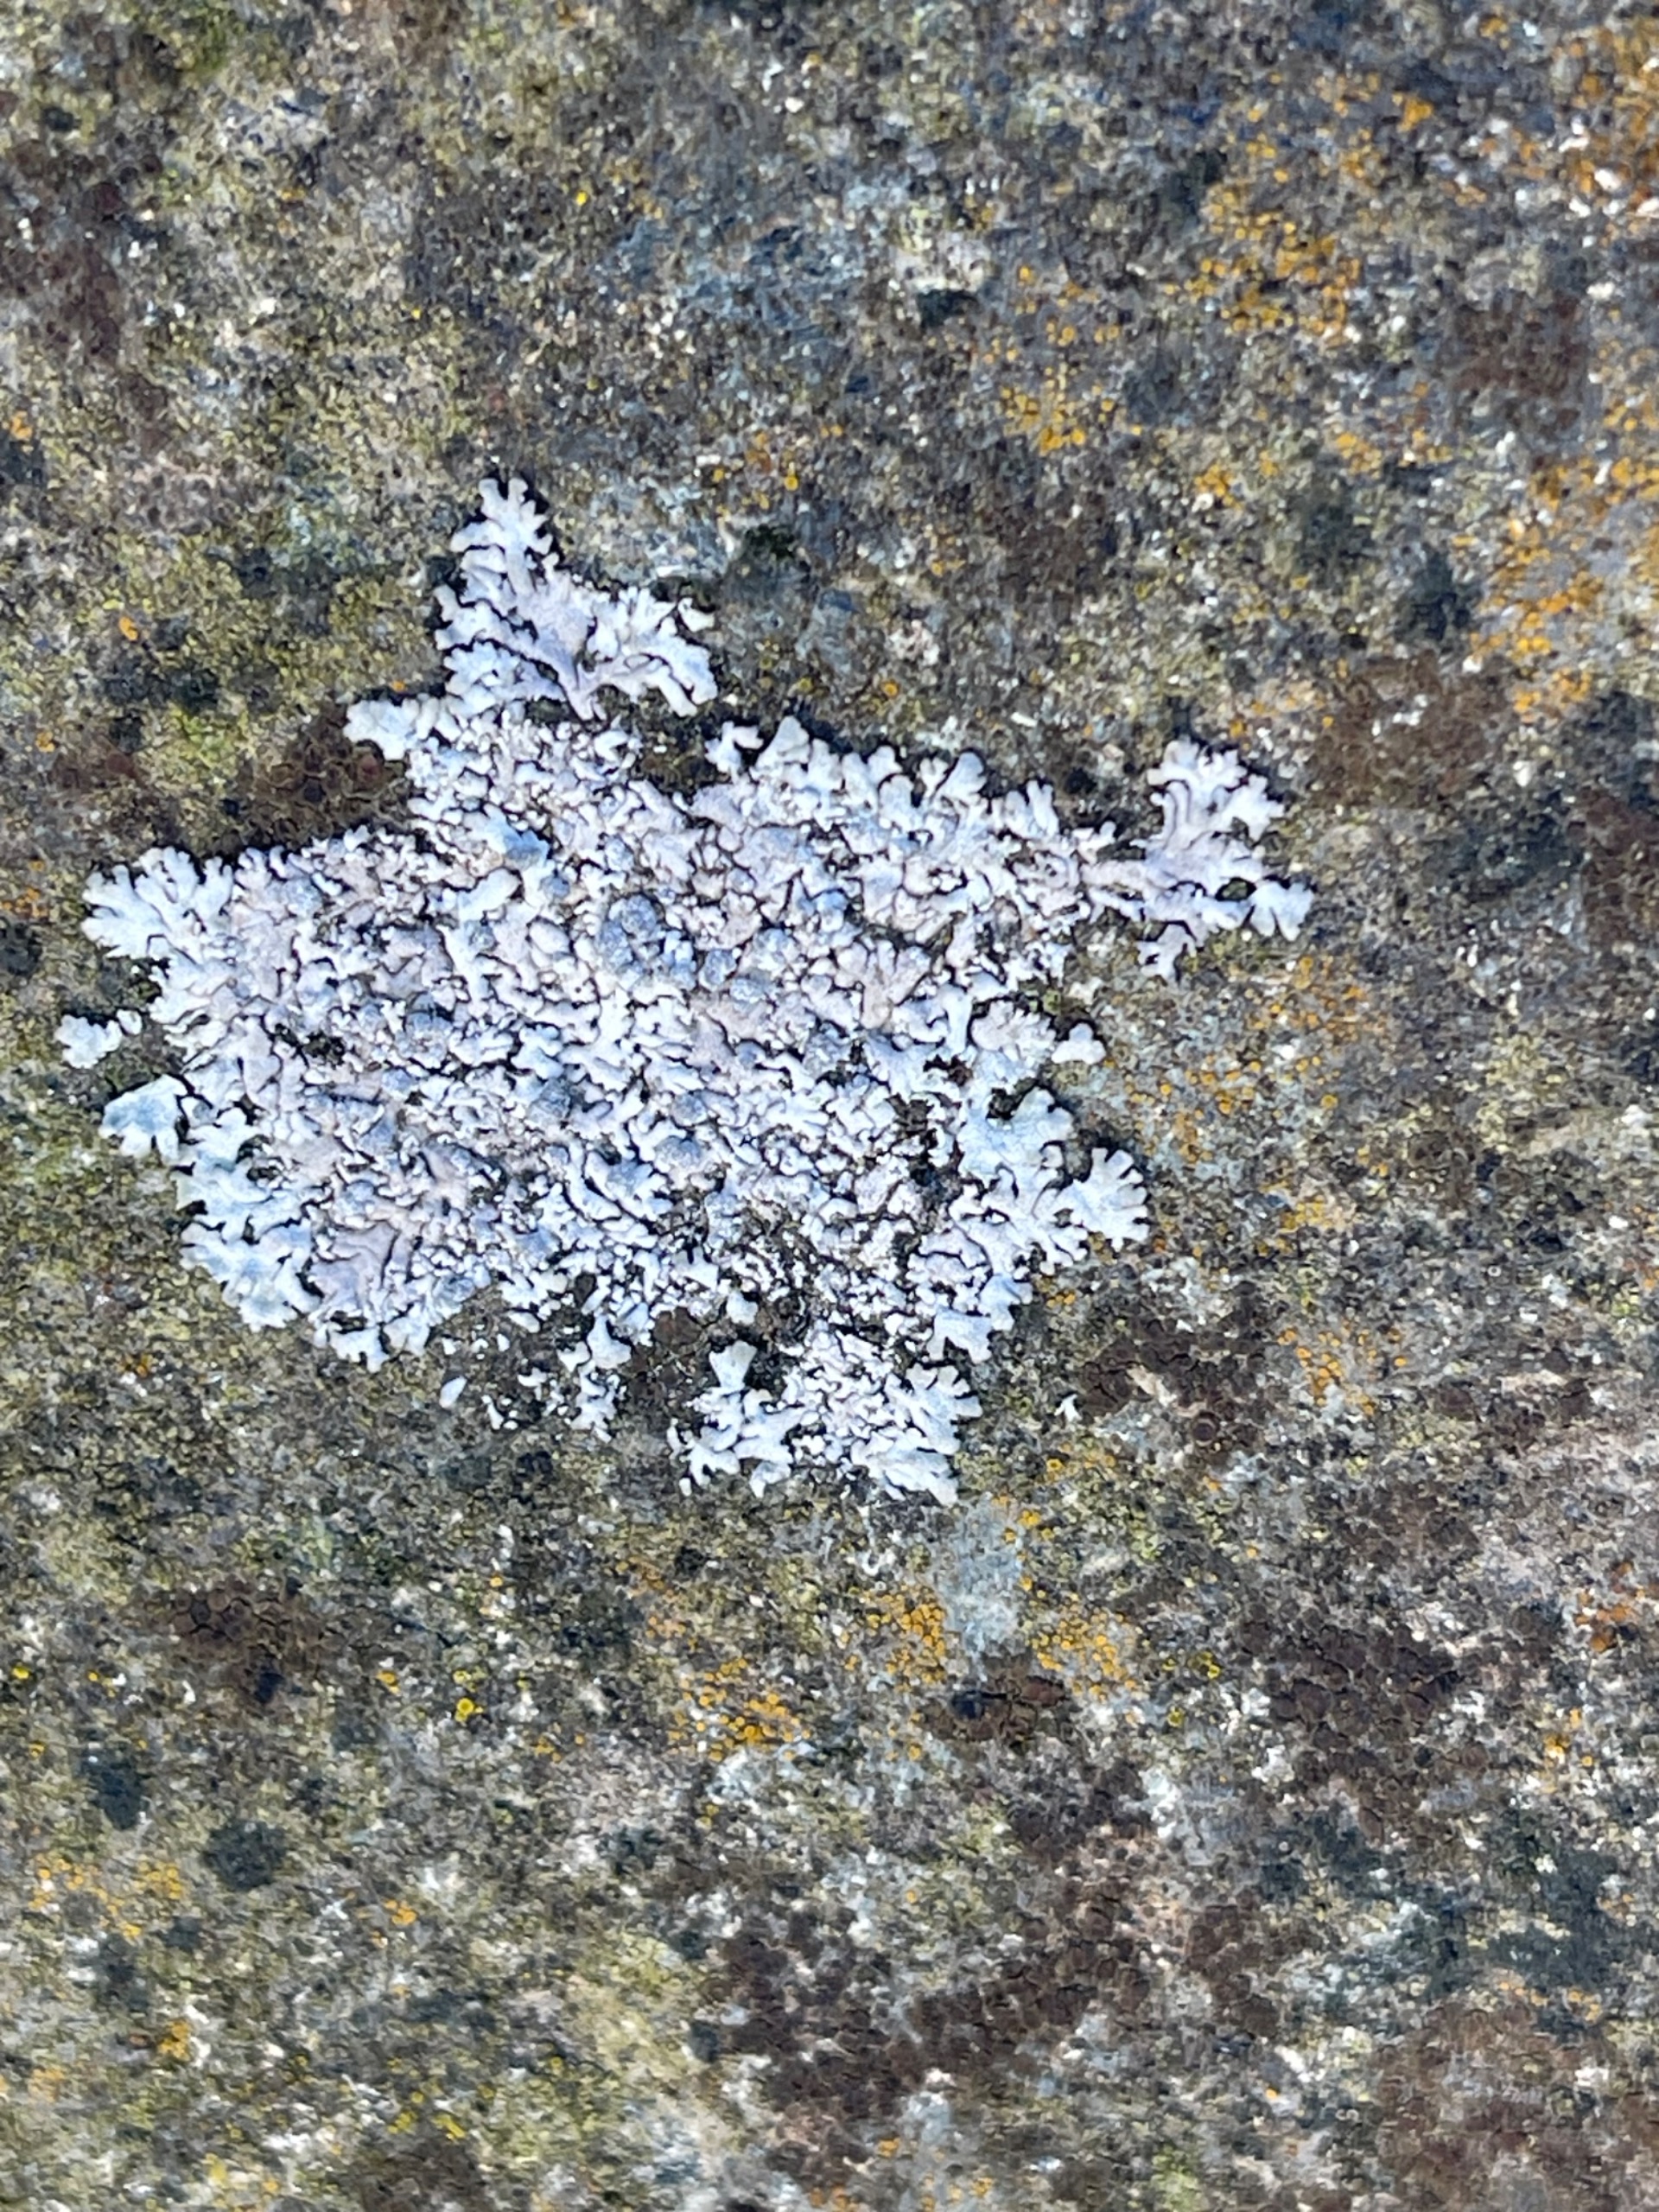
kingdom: Fungi
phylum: Ascomycota
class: Lecanoromycetes
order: Caliciales
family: Physciaceae
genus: Physcia
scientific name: Physcia caesia
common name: Blågrå rosetlav
